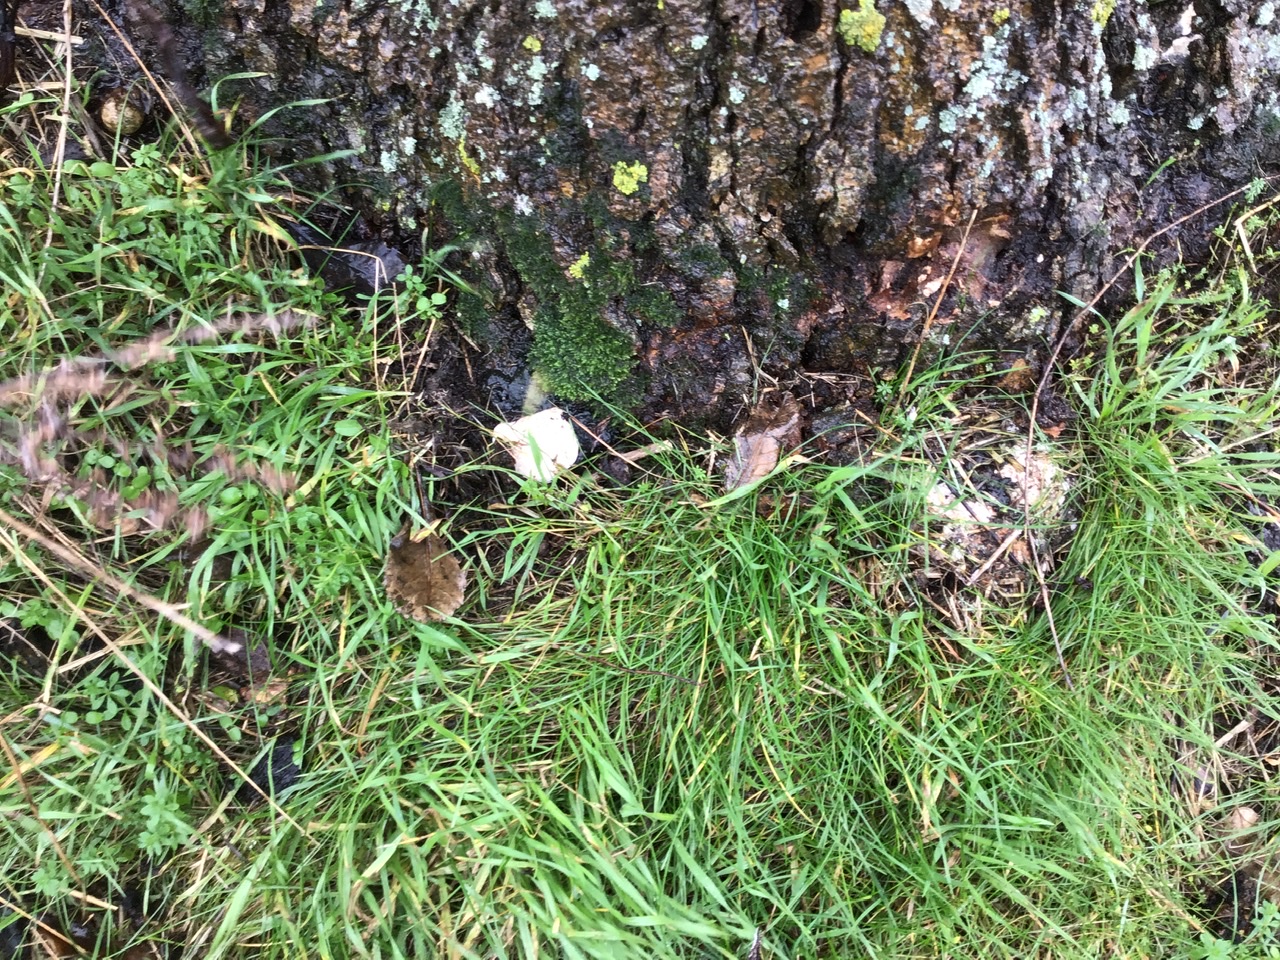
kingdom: Fungi
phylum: Basidiomycota
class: Agaricomycetes
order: Polyporales
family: Polyporaceae
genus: Ganoderma
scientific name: Ganoderma applanatum
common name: flad lakporesvamp
